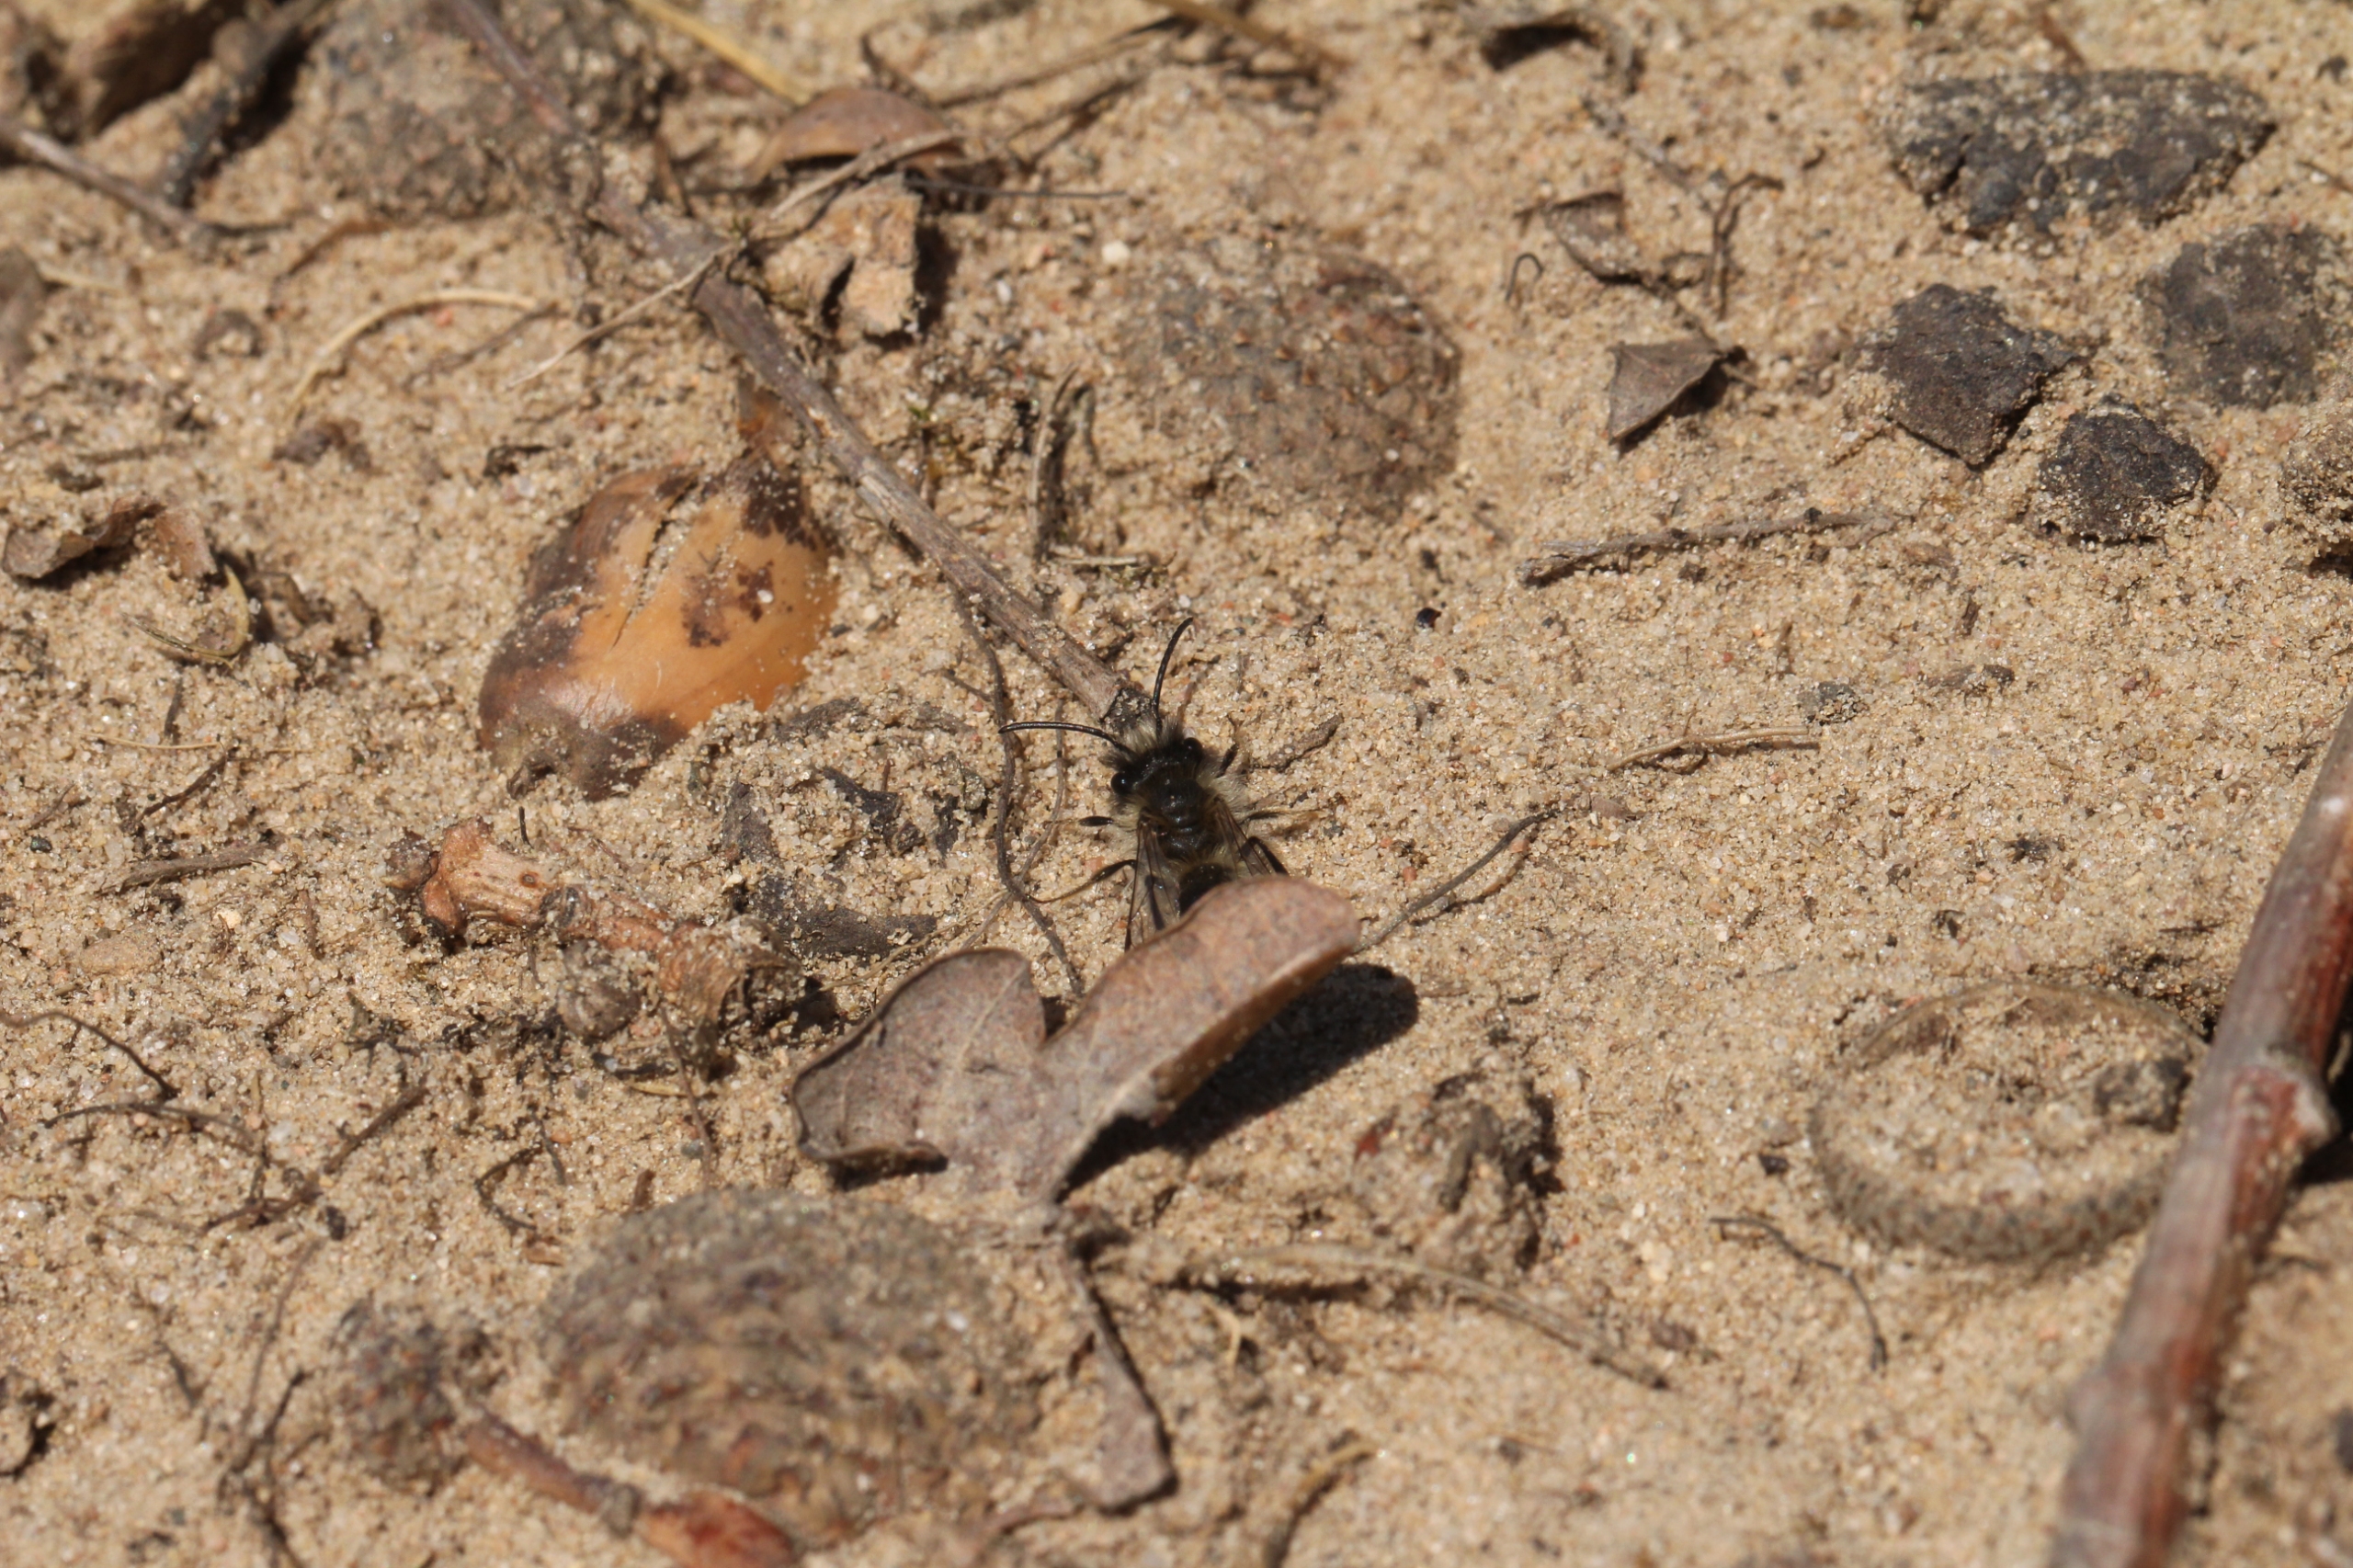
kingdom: Animalia
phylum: Arthropoda
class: Insecta
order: Hymenoptera
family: Andrenidae
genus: Andrena
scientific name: Andrena
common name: Jordbier
